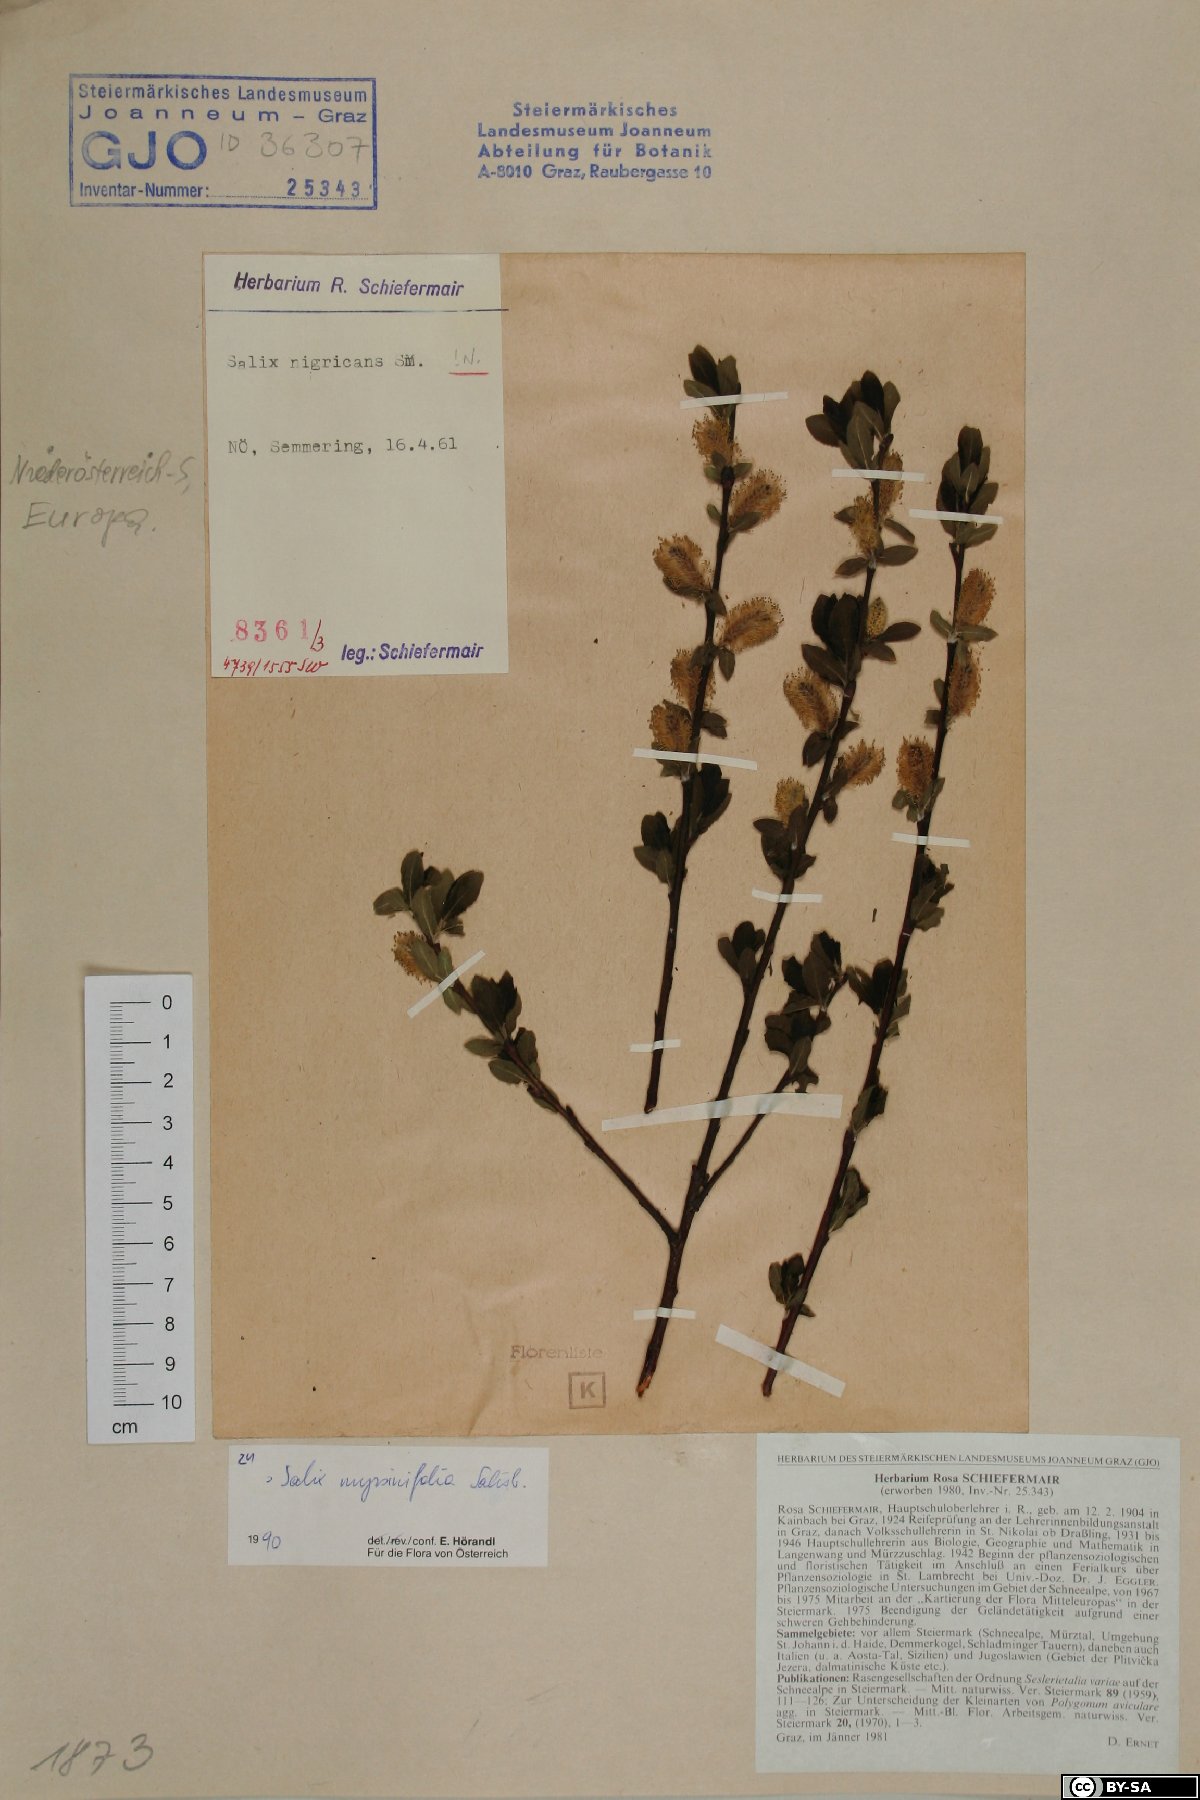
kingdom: Plantae
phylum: Tracheophyta
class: Magnoliopsida
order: Malpighiales
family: Salicaceae
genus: Salix
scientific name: Salix myrsinifolia
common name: Dark-leaved willow
